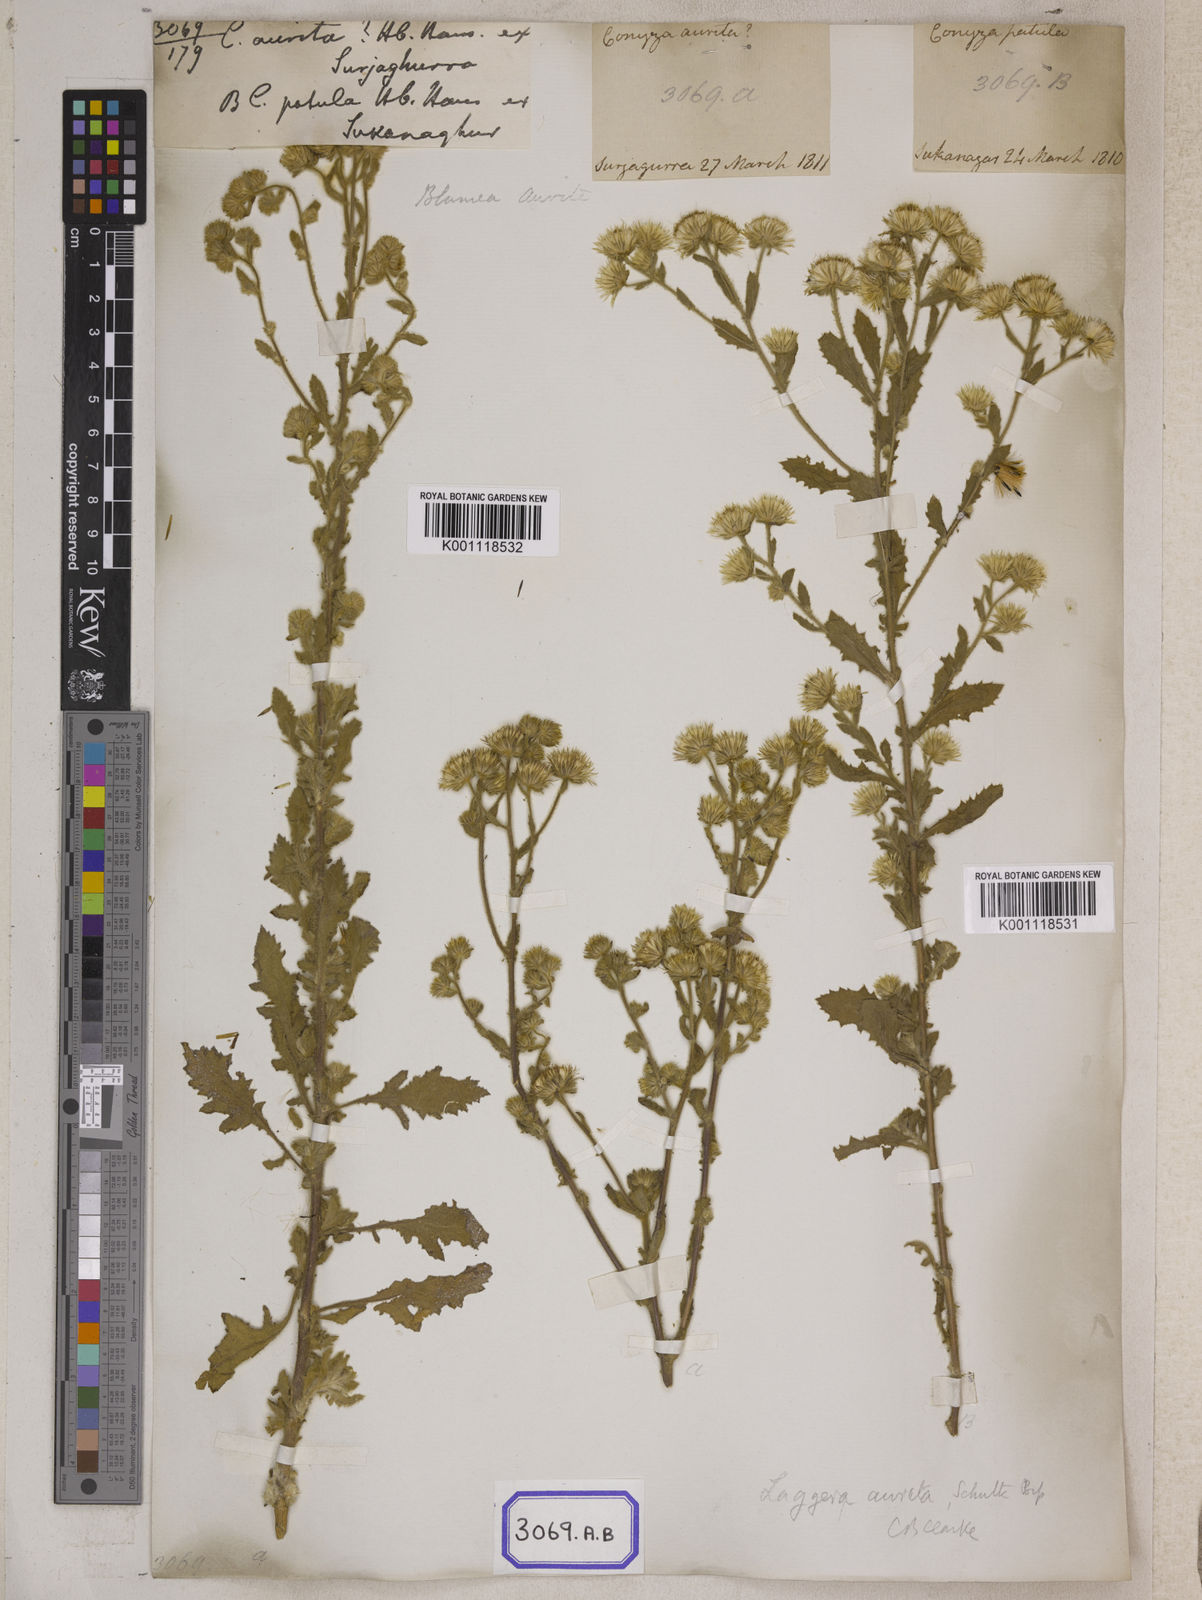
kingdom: Plantae
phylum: Tracheophyta
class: Magnoliopsida
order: Asterales
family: Asteraceae
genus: Pseudoconyza
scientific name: Pseudoconyza viscosa
